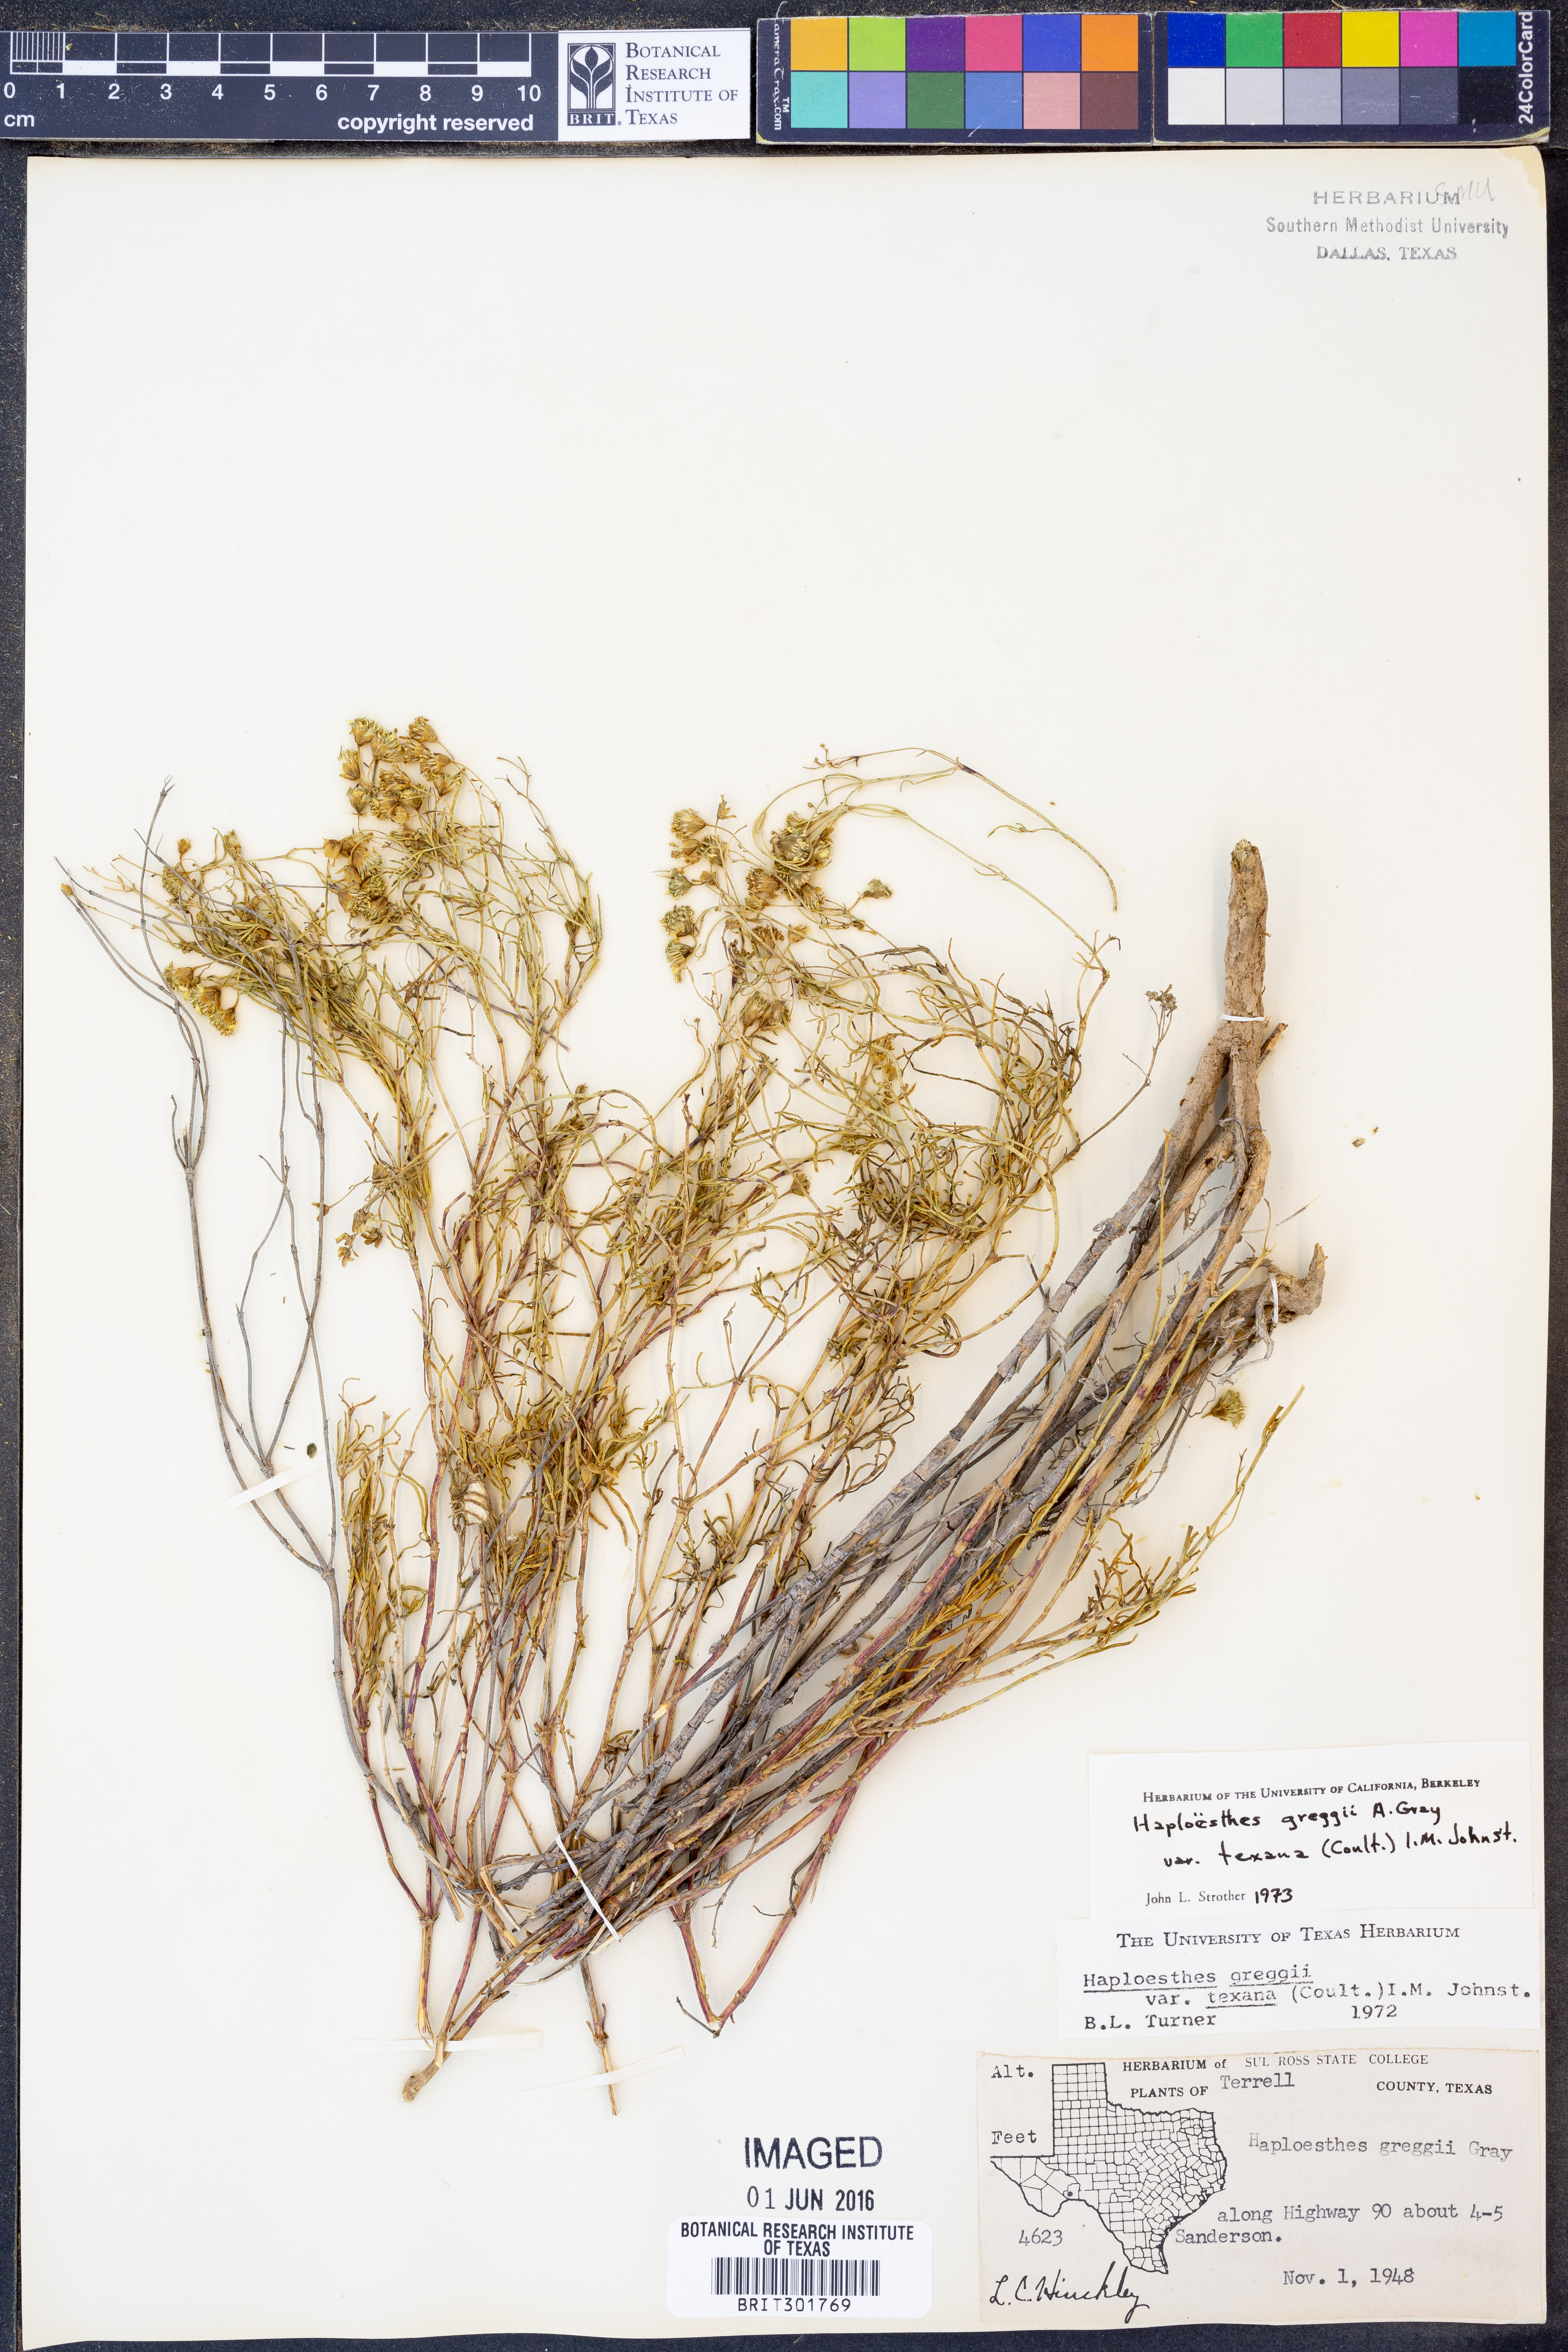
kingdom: Plantae
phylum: Tracheophyta
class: Magnoliopsida
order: Asterales
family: Asteraceae
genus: Haploesthes
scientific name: Haploesthes greggii
